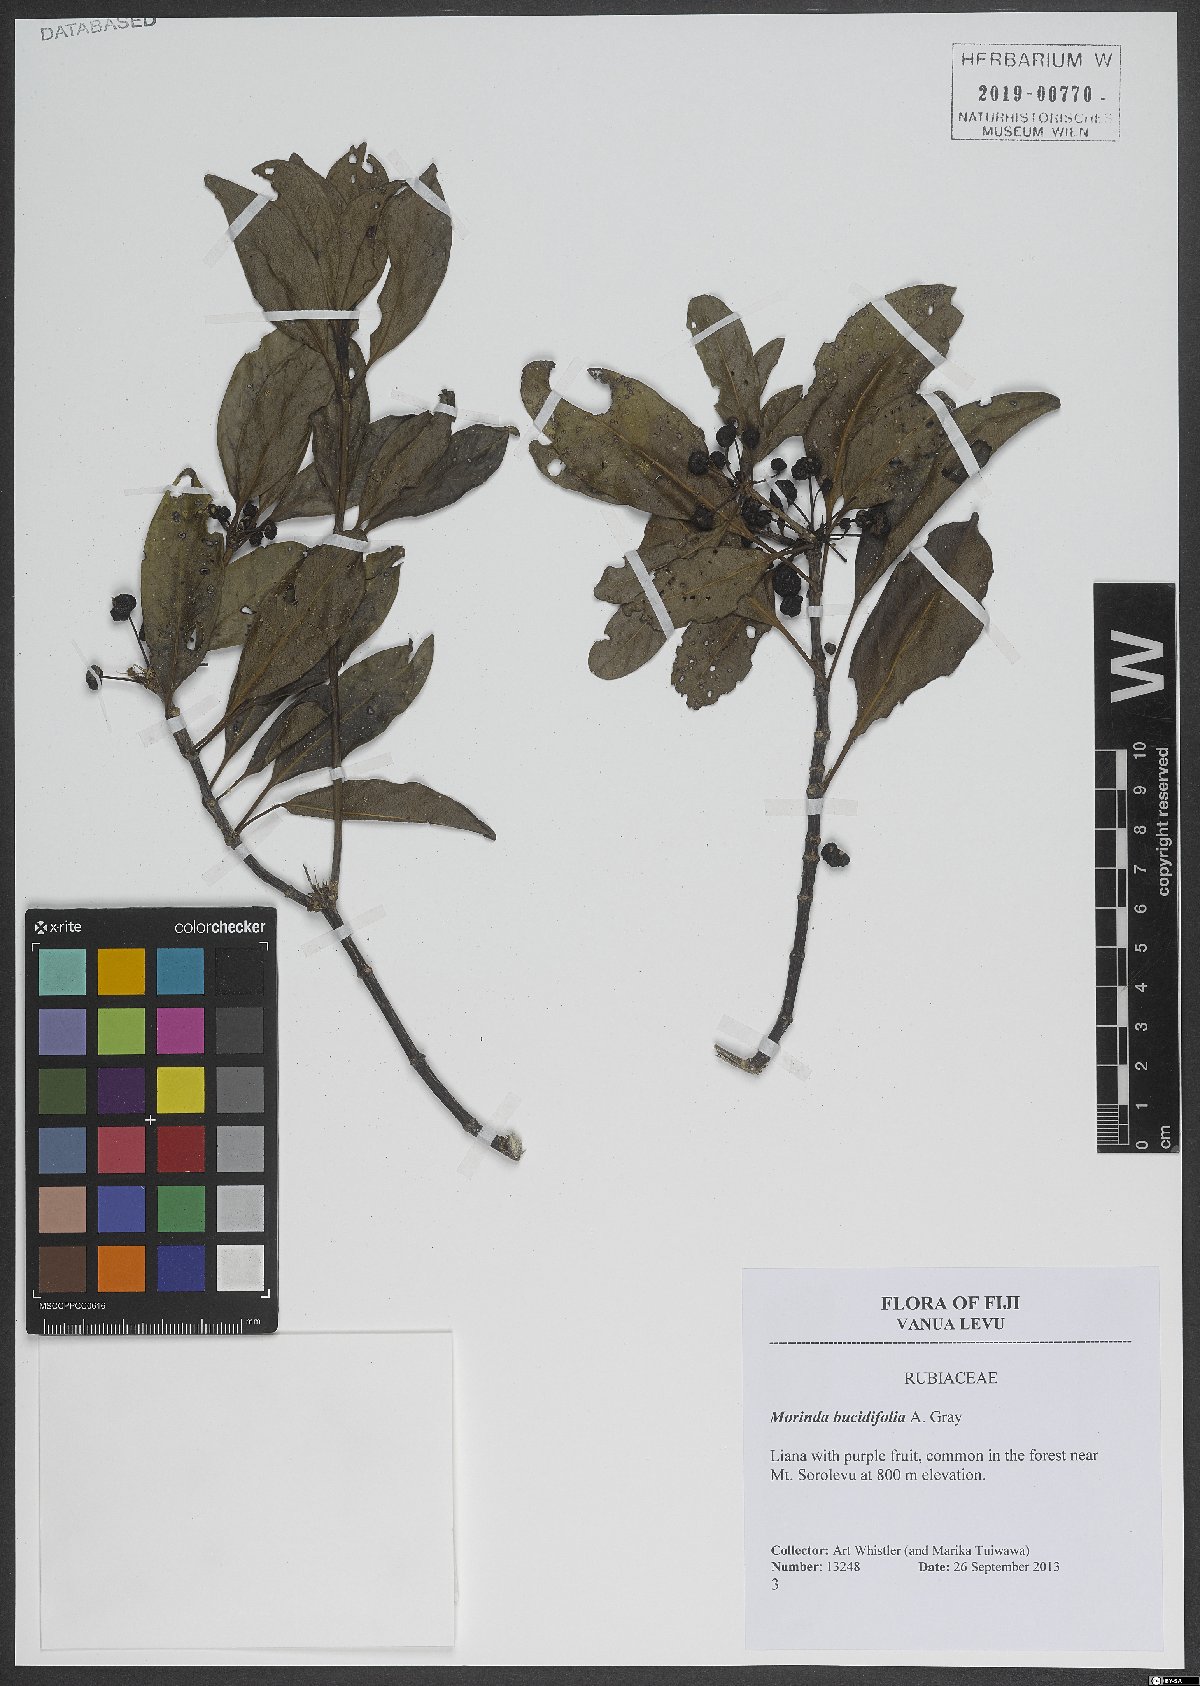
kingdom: Plantae
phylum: Tracheophyta
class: Magnoliopsida
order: Gentianales
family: Rubiaceae
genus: Gynochthodes
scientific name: Gynochthodes bucidifolia
